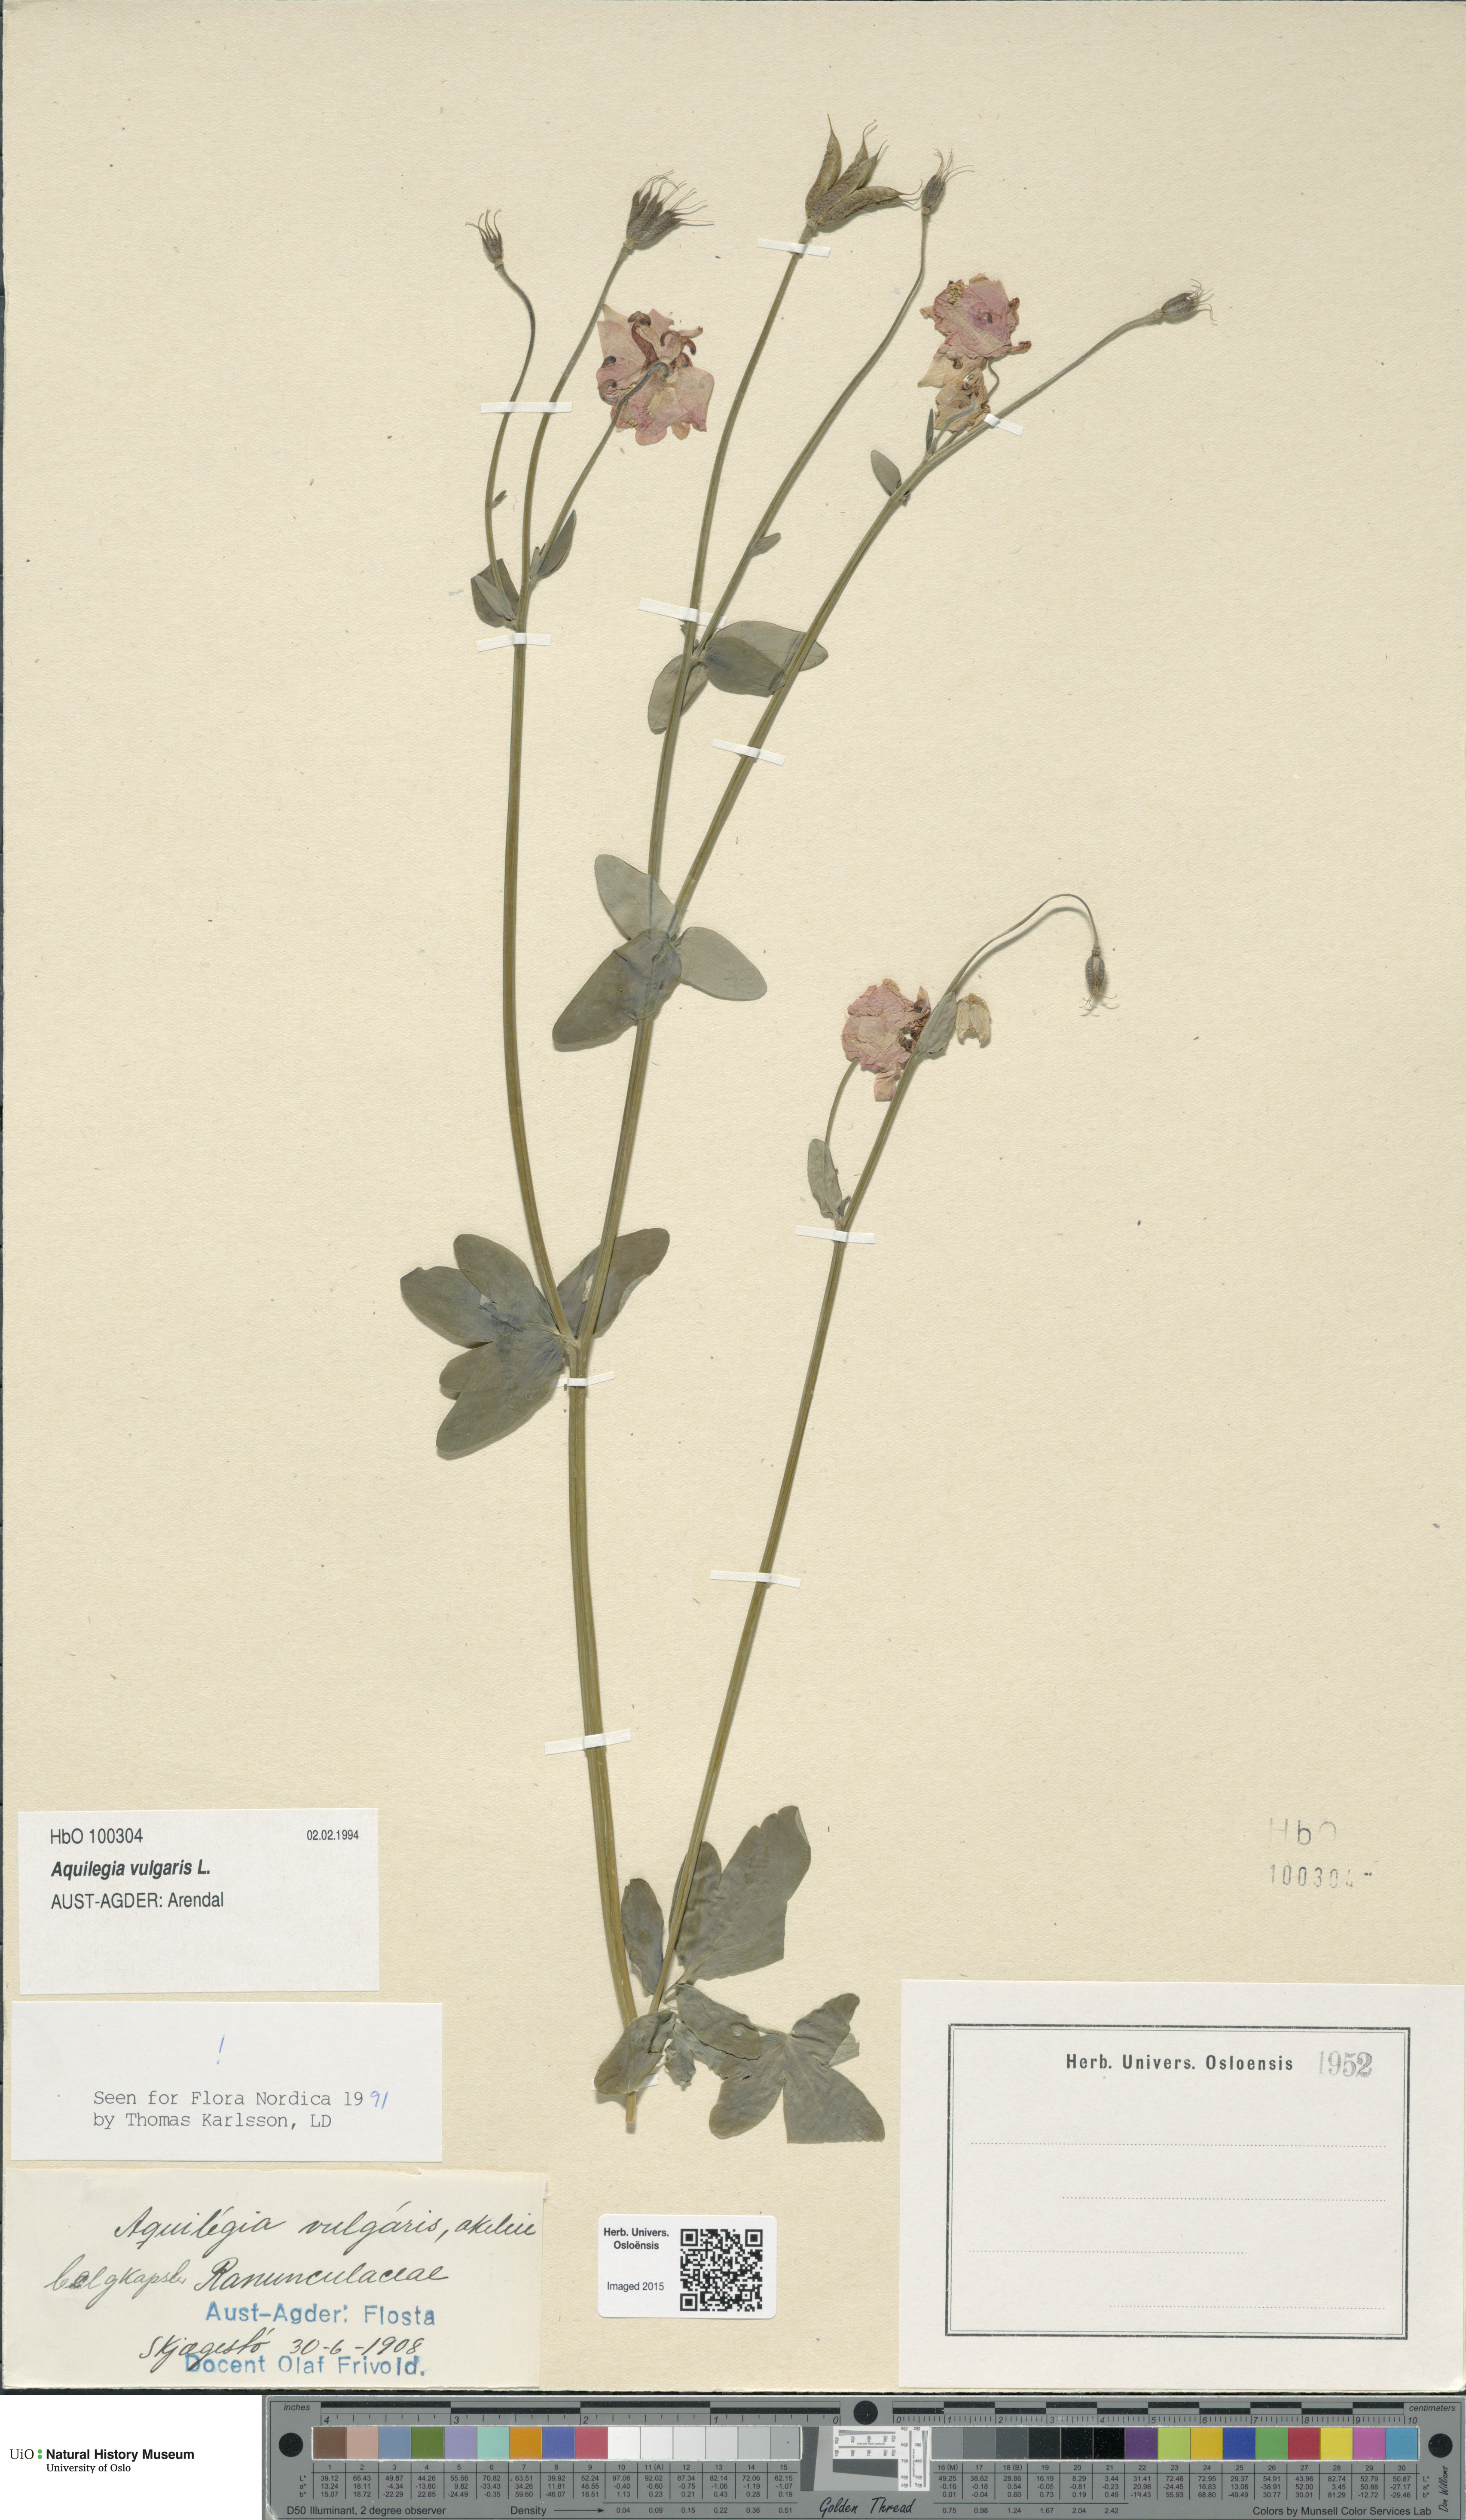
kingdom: Plantae
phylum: Tracheophyta
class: Magnoliopsida
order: Ranunculales
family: Ranunculaceae
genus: Aquilegia
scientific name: Aquilegia vulgaris
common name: Columbine
